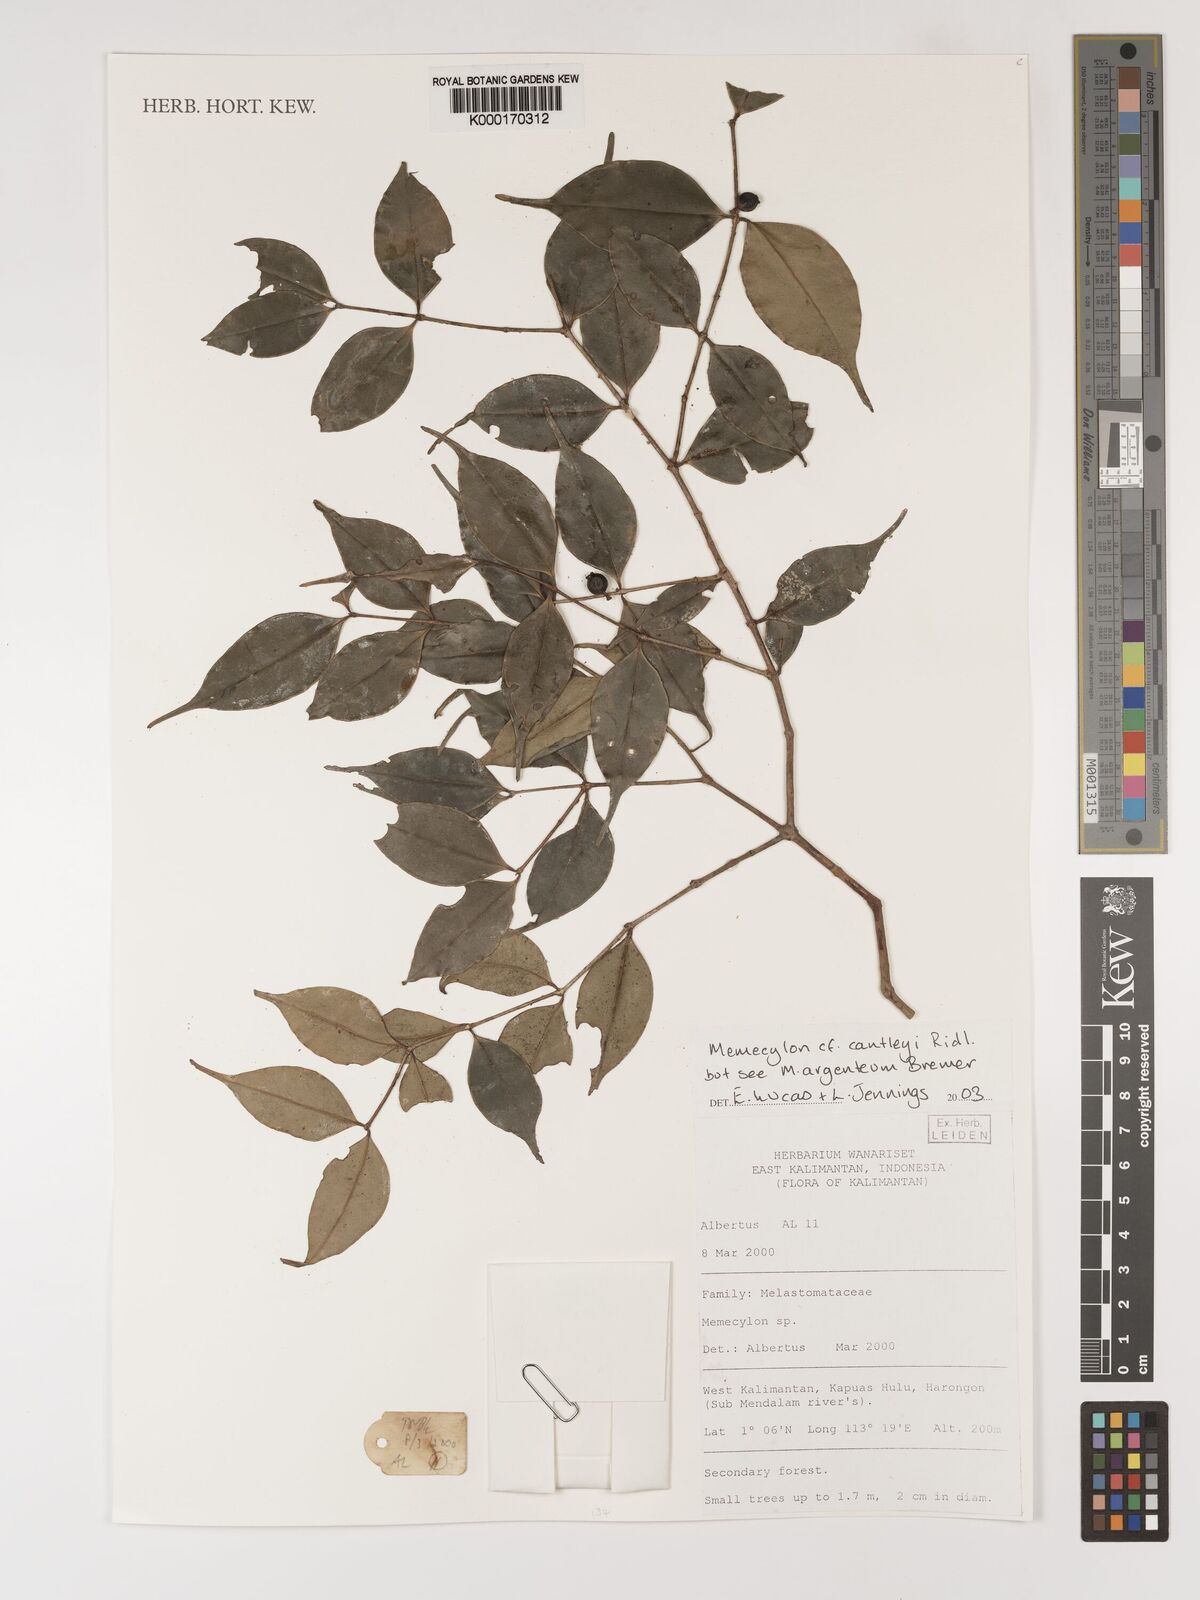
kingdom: Plantae
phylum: Tracheophyta
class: Magnoliopsida
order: Myrtales
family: Melastomataceae
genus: Memecylon
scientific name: Memecylon cantleyi
